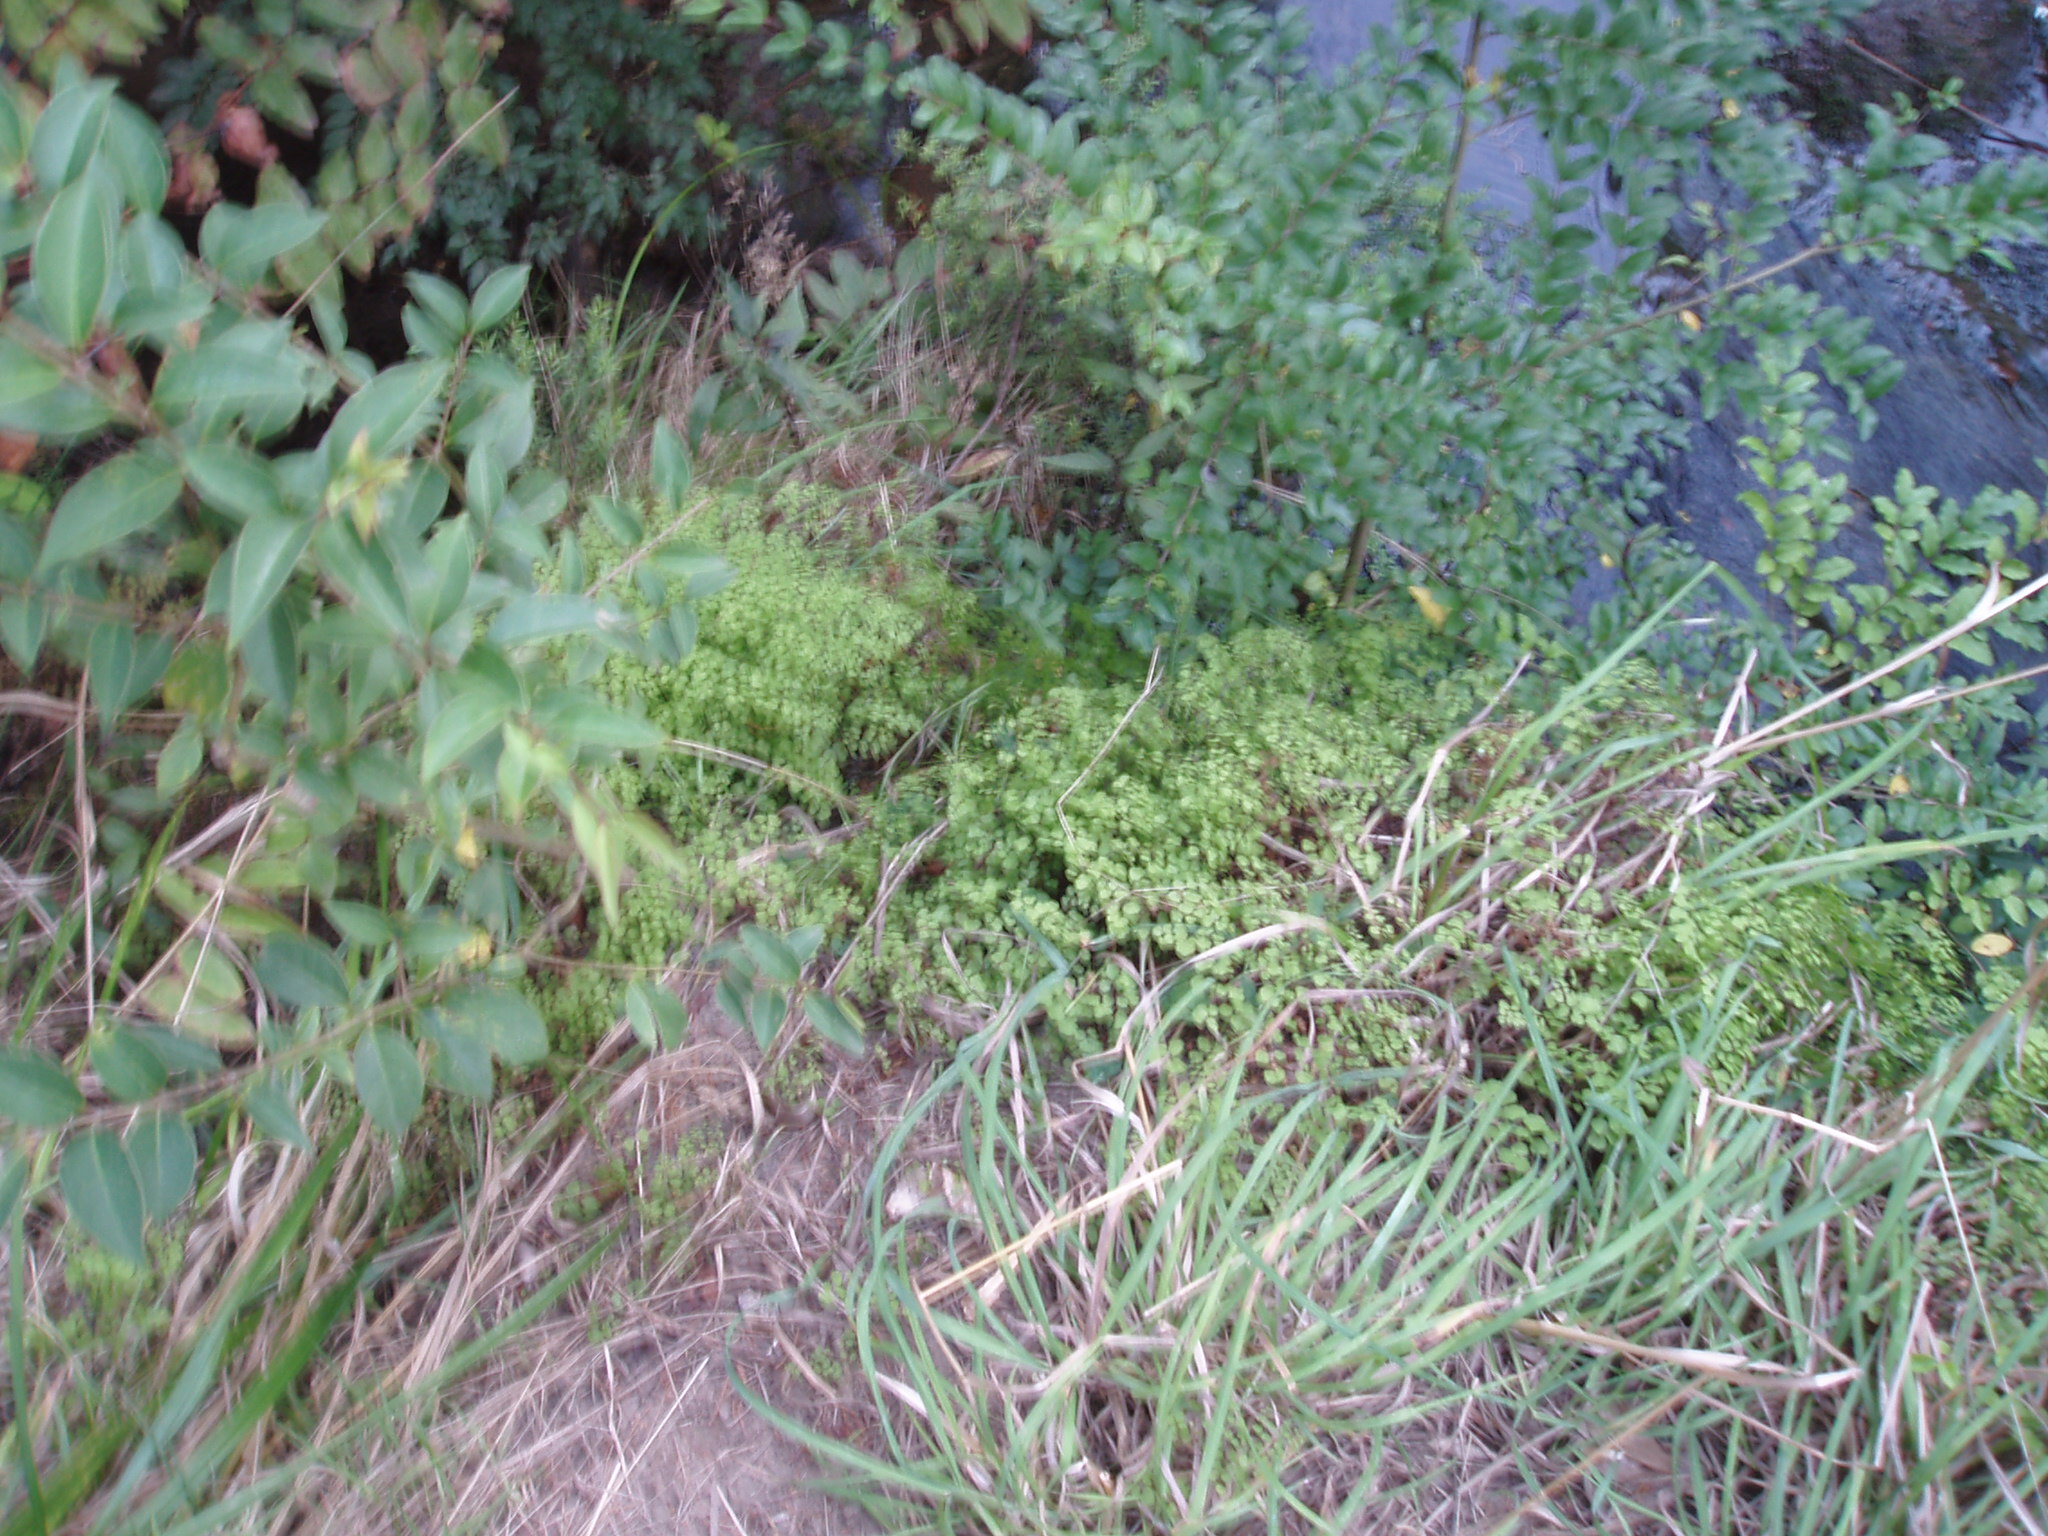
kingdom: Plantae
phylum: Tracheophyta
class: Polypodiopsida
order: Polypodiales
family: Pteridaceae
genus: Adiantum
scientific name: Adiantum aethiopicum
